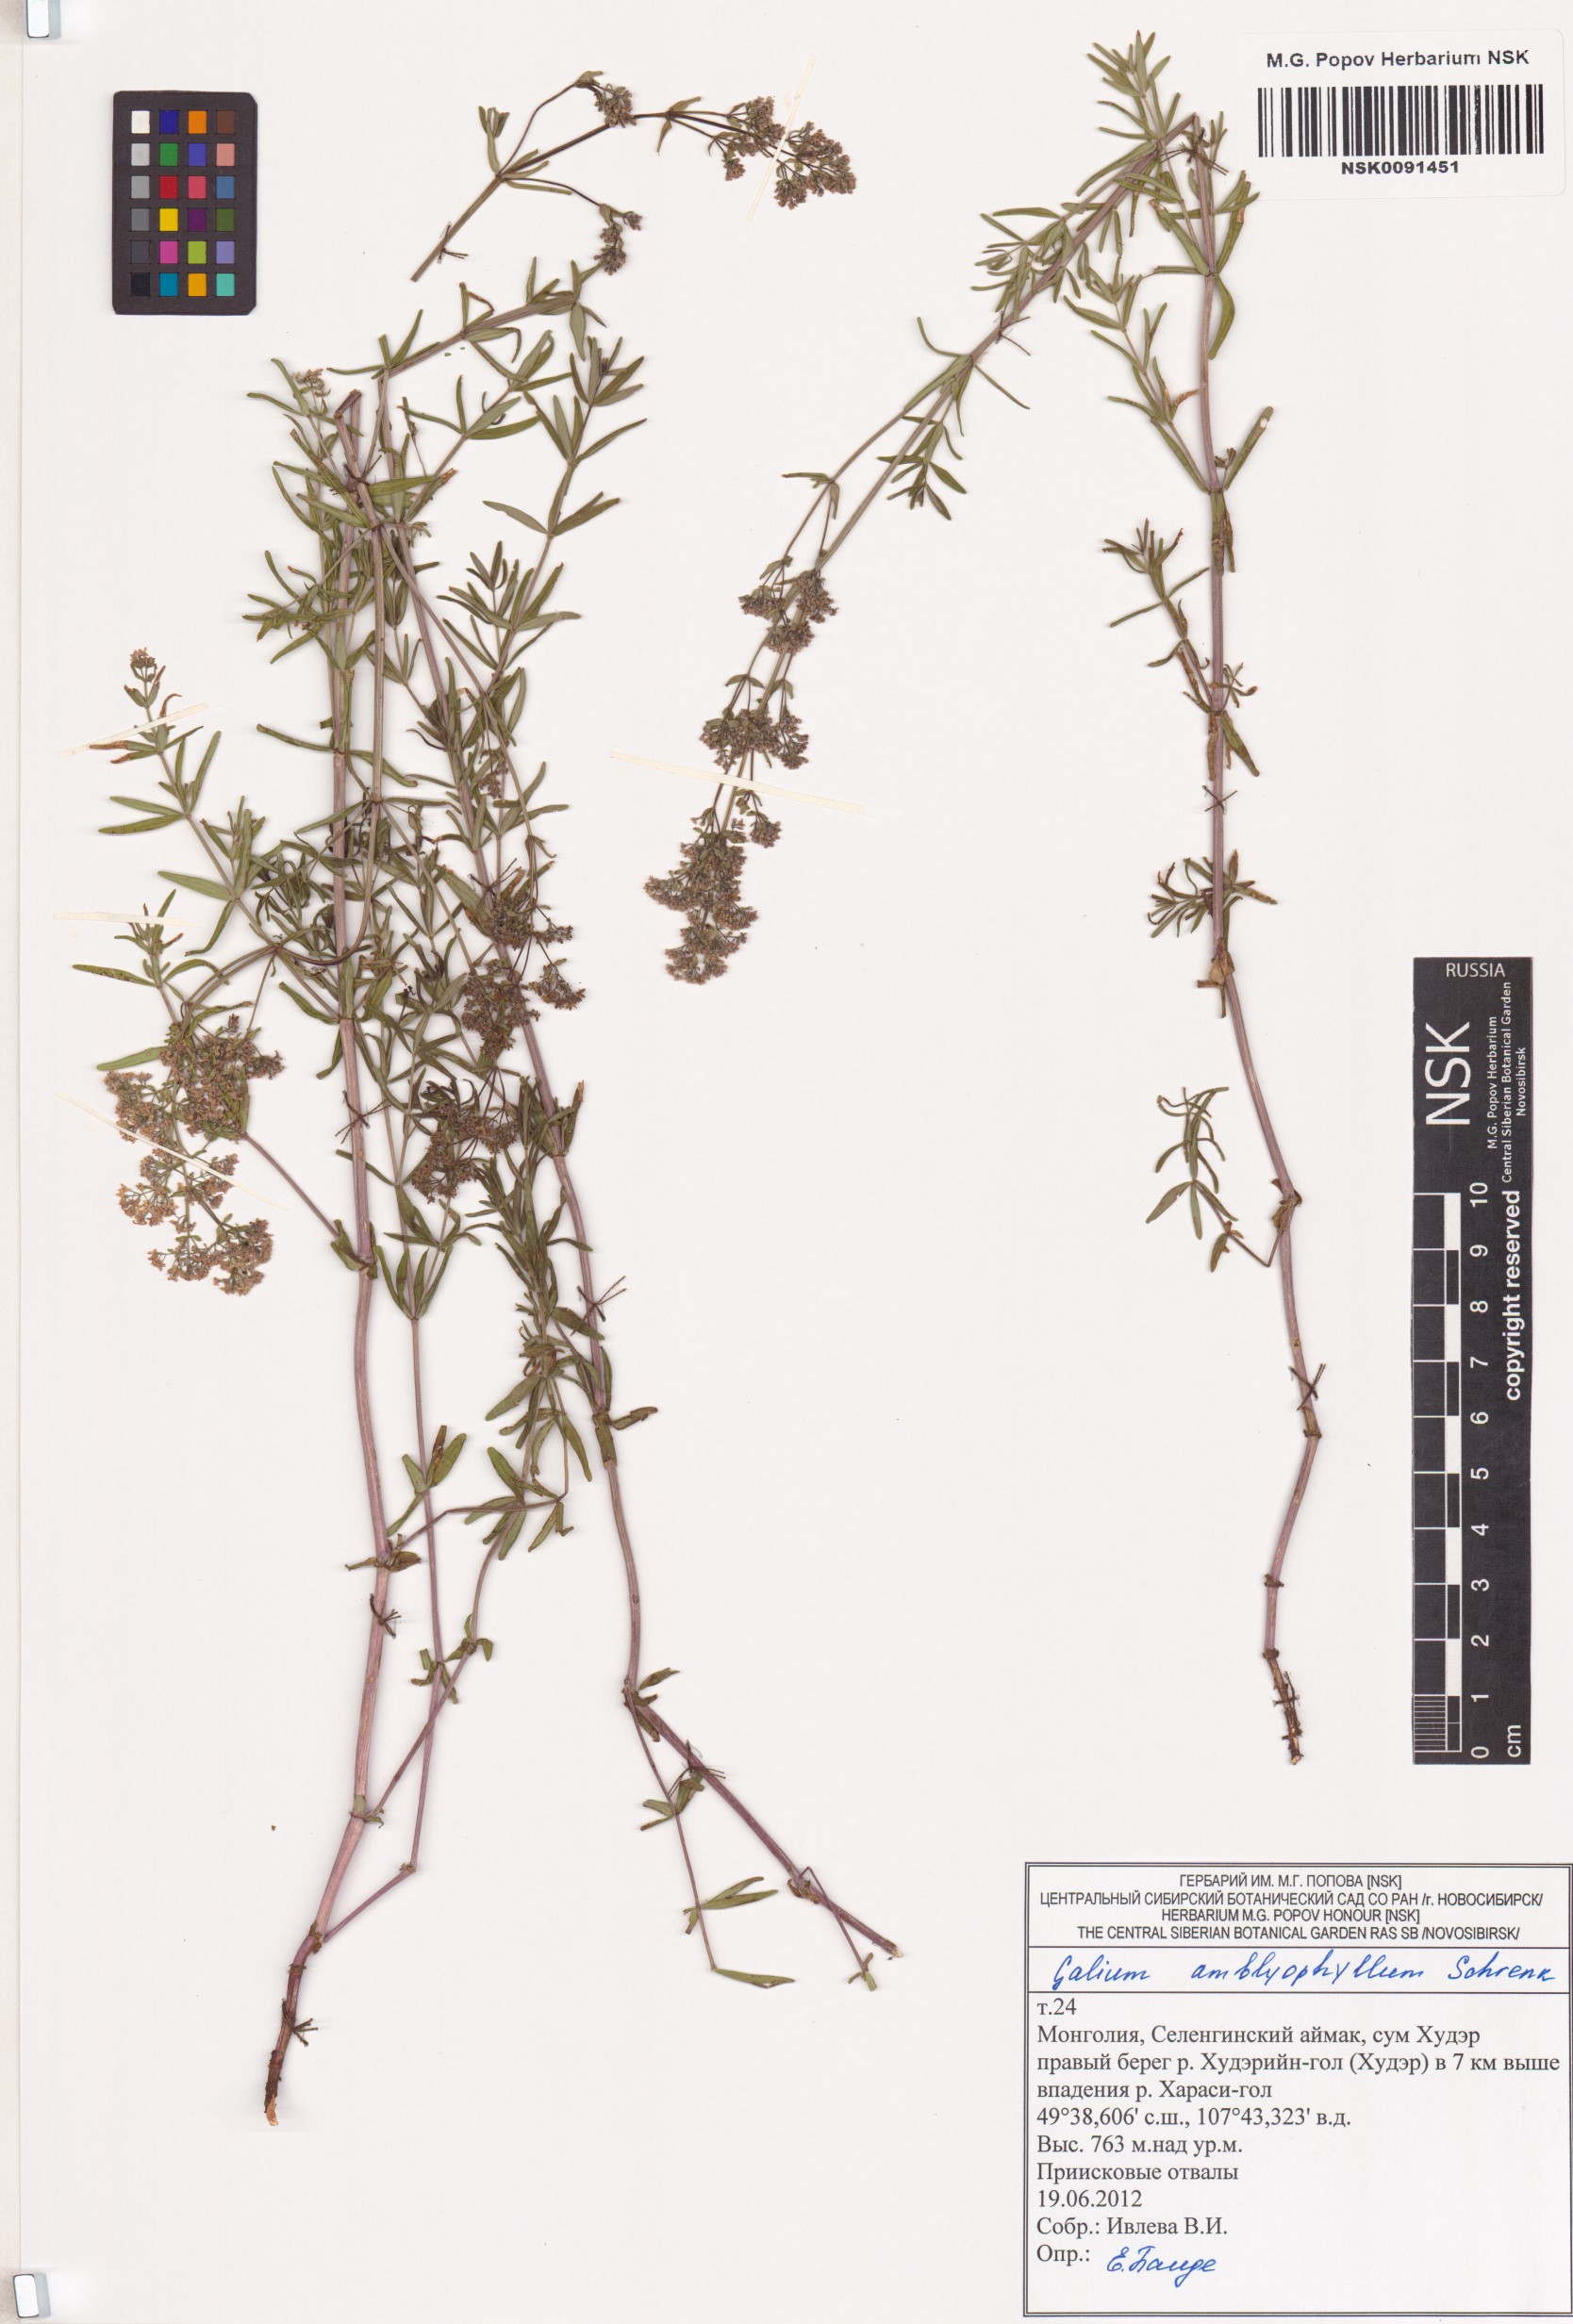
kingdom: Plantae
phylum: Tracheophyta
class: Magnoliopsida
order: Gentianales
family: Rubiaceae
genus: Galium
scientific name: Galium amblyophyllum
